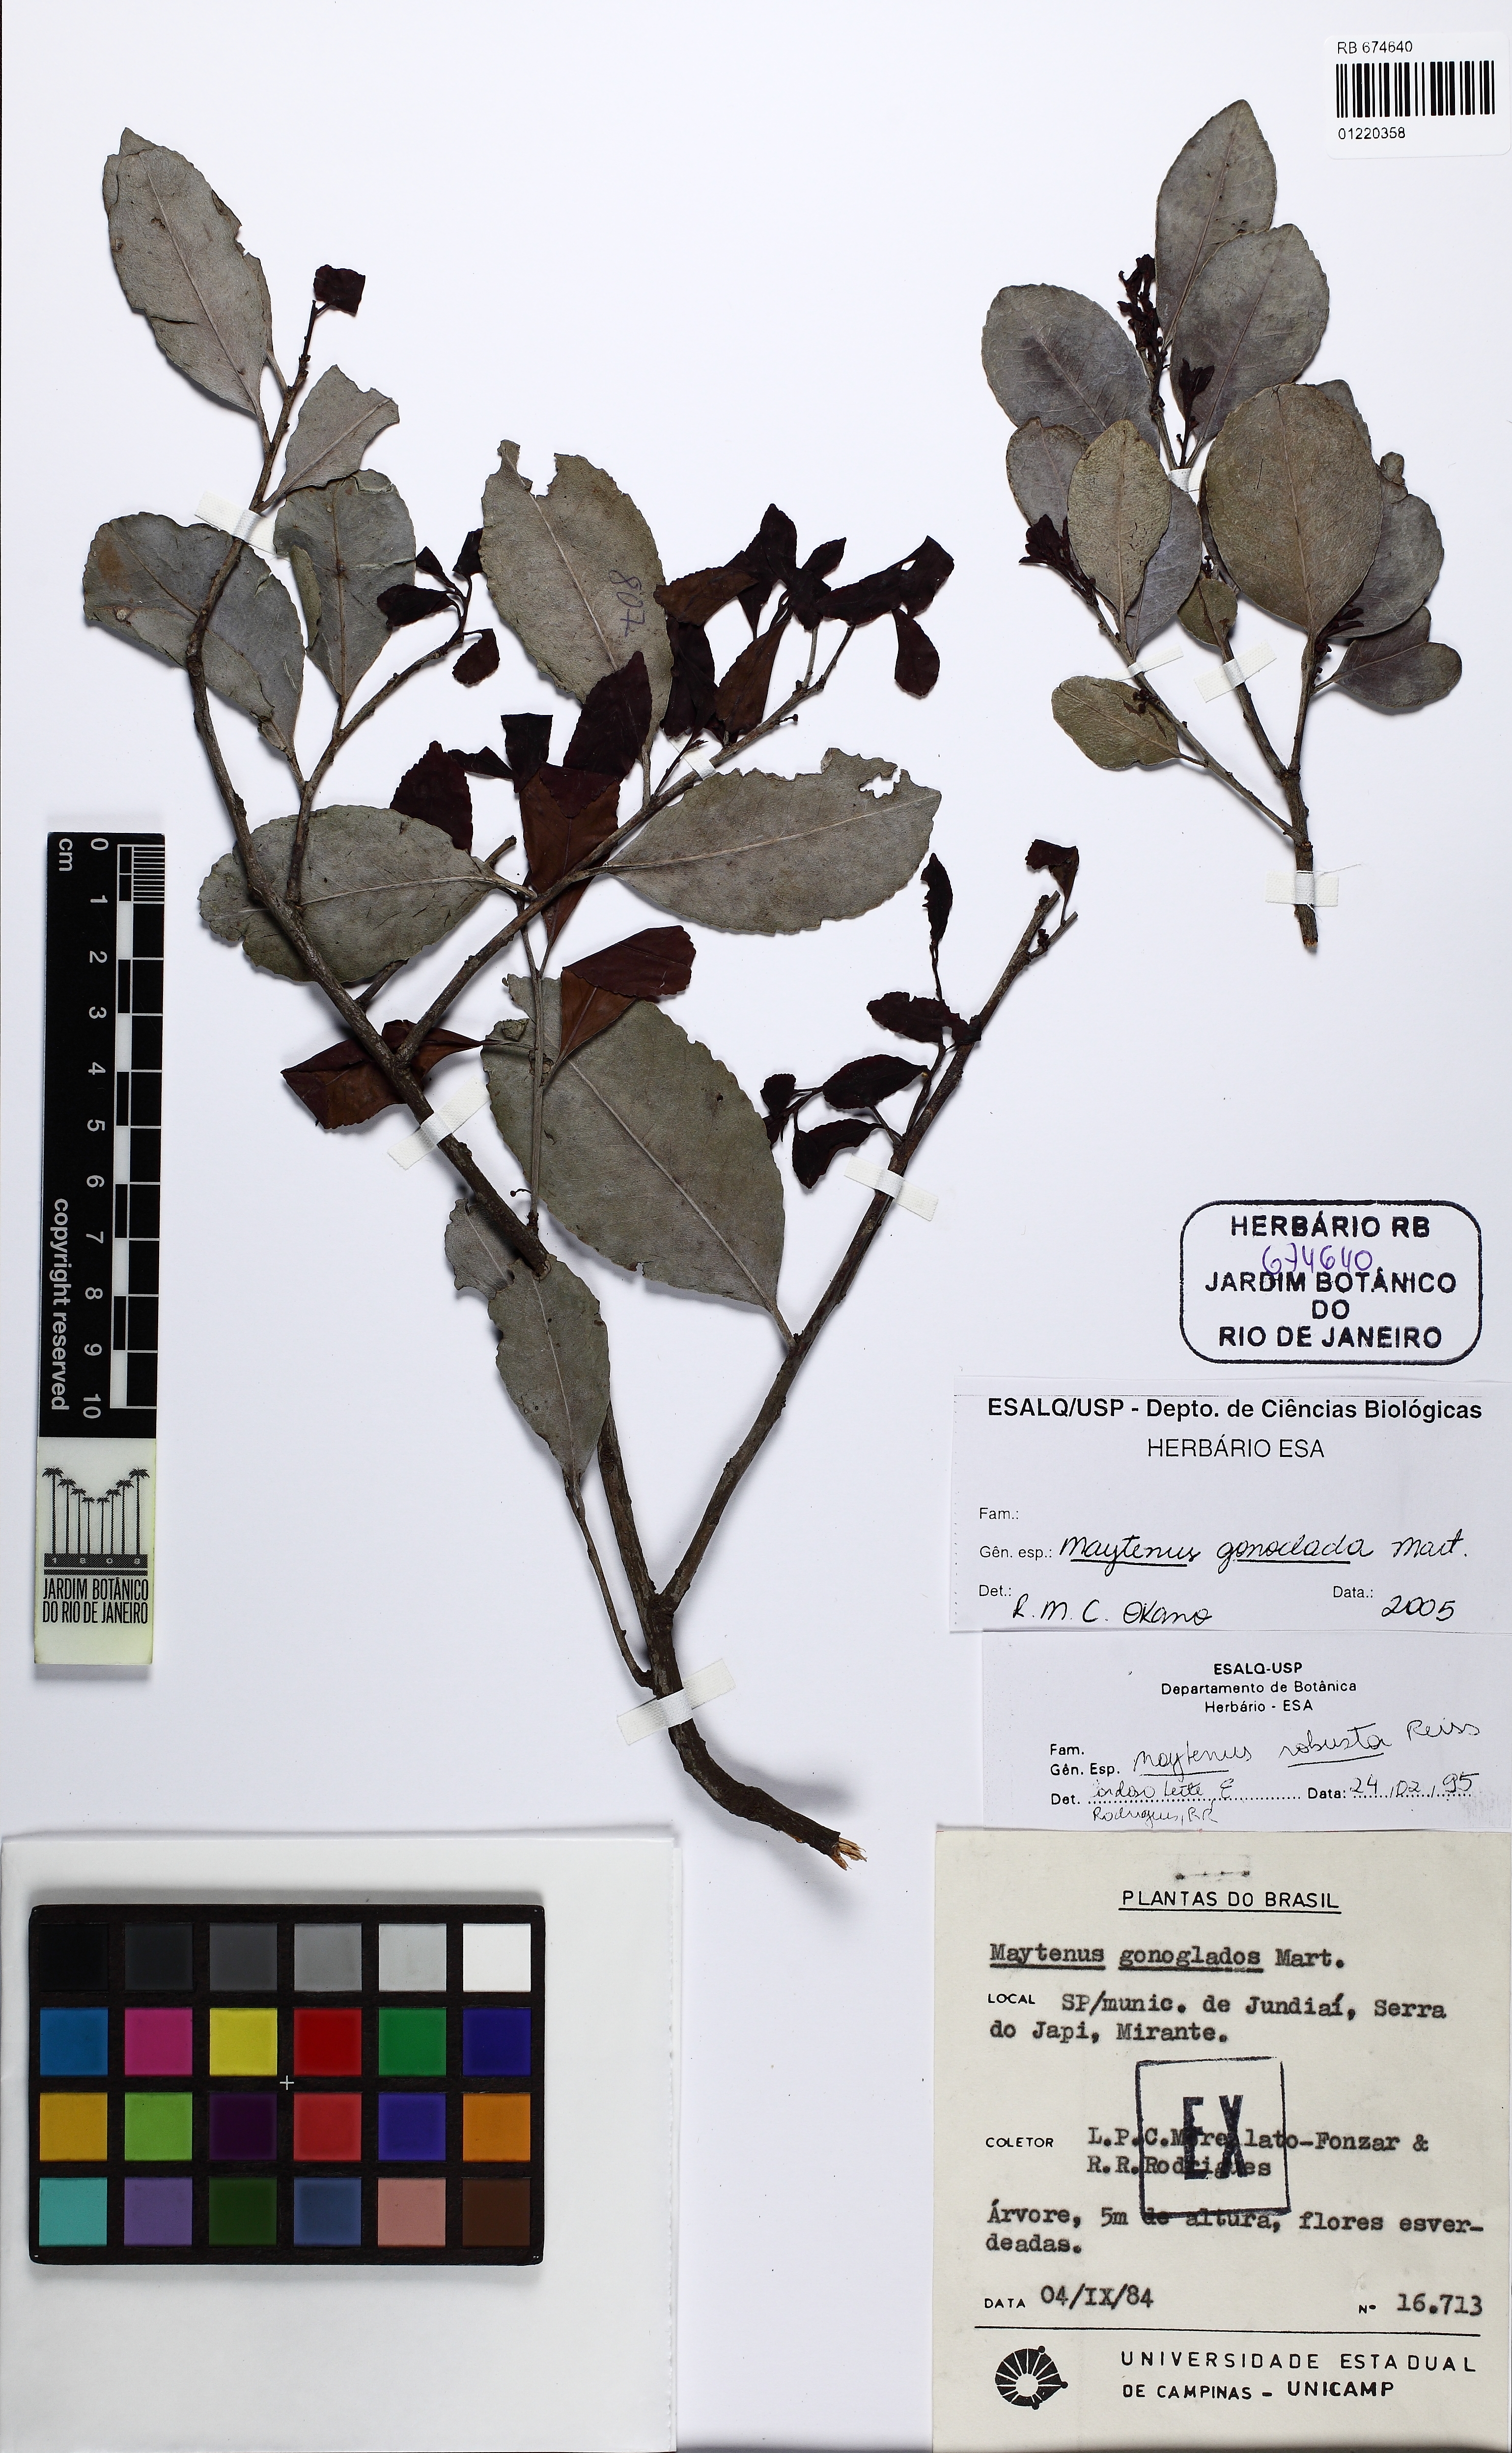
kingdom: Plantae
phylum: Tracheophyta
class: Magnoliopsida
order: Celastrales
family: Celastraceae
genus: Monteverdia
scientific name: Monteverdia gonoclada
